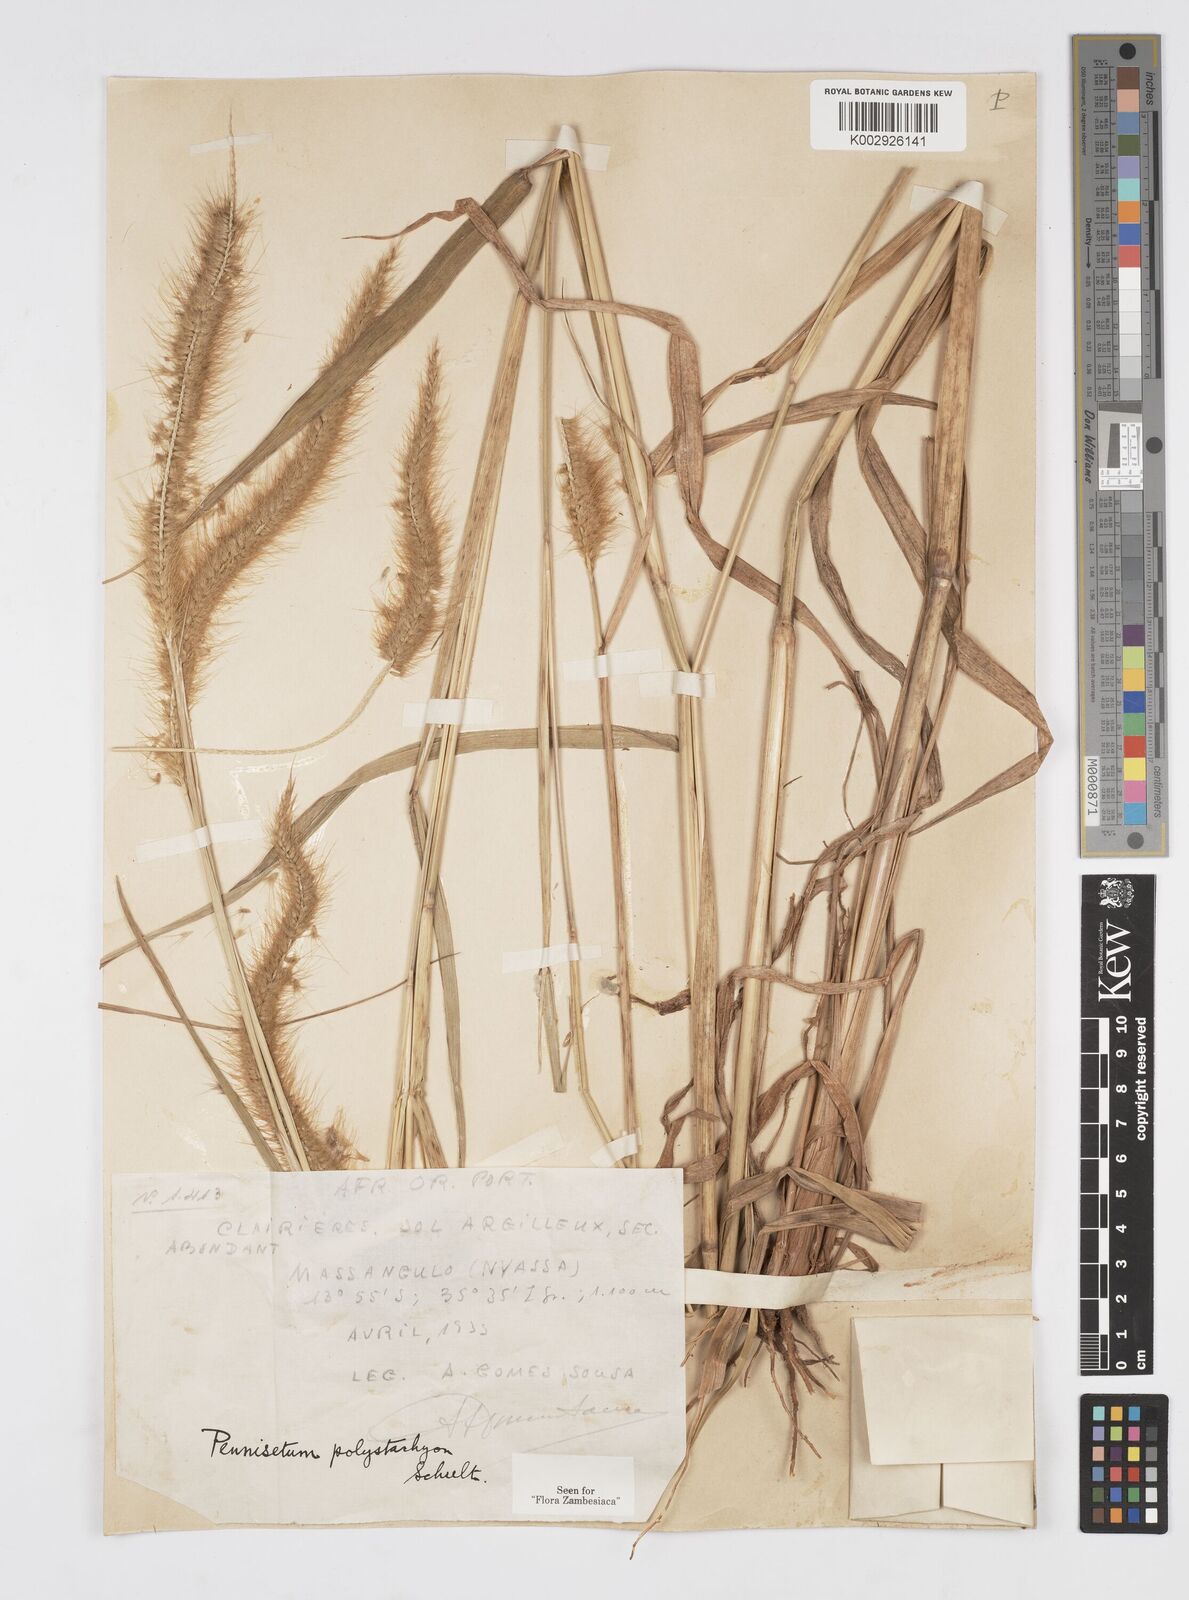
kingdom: Plantae
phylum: Tracheophyta
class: Liliopsida
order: Poales
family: Poaceae
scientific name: Poaceae
